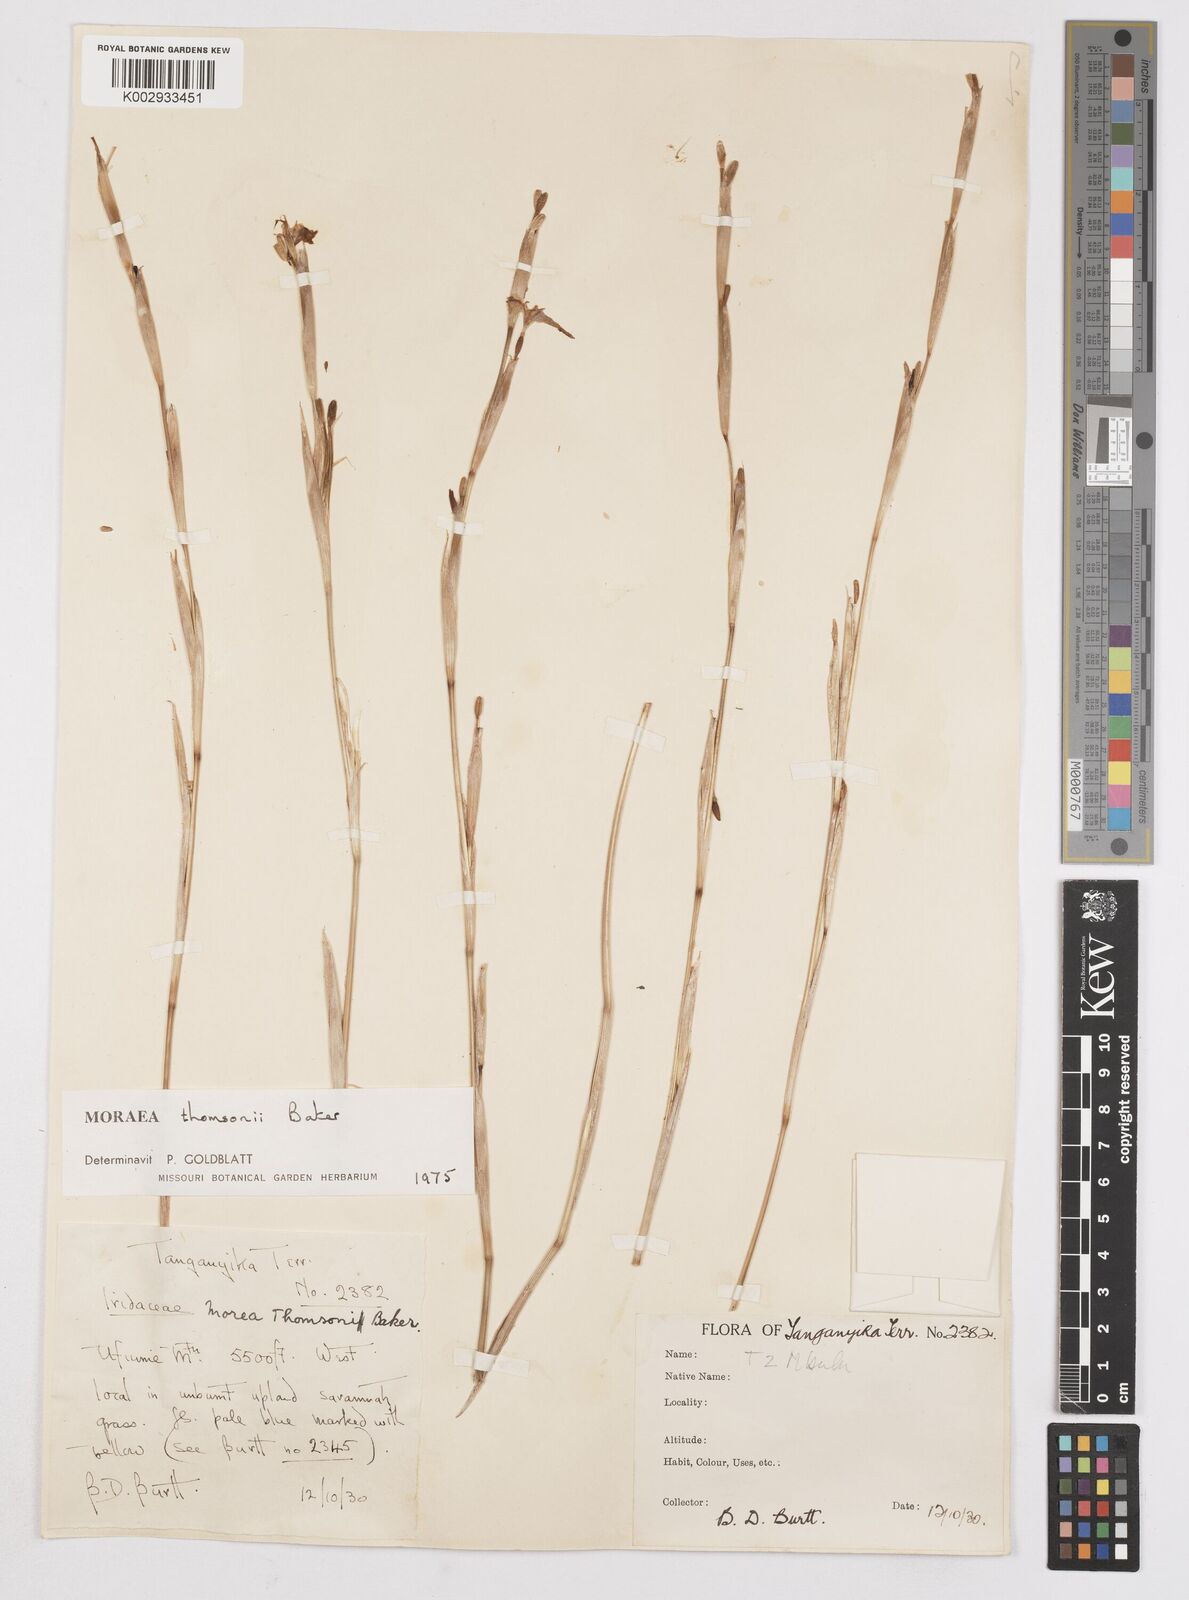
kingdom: Plantae
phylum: Tracheophyta
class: Liliopsida
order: Asparagales
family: Iridaceae
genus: Moraea
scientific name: Moraea stricta
